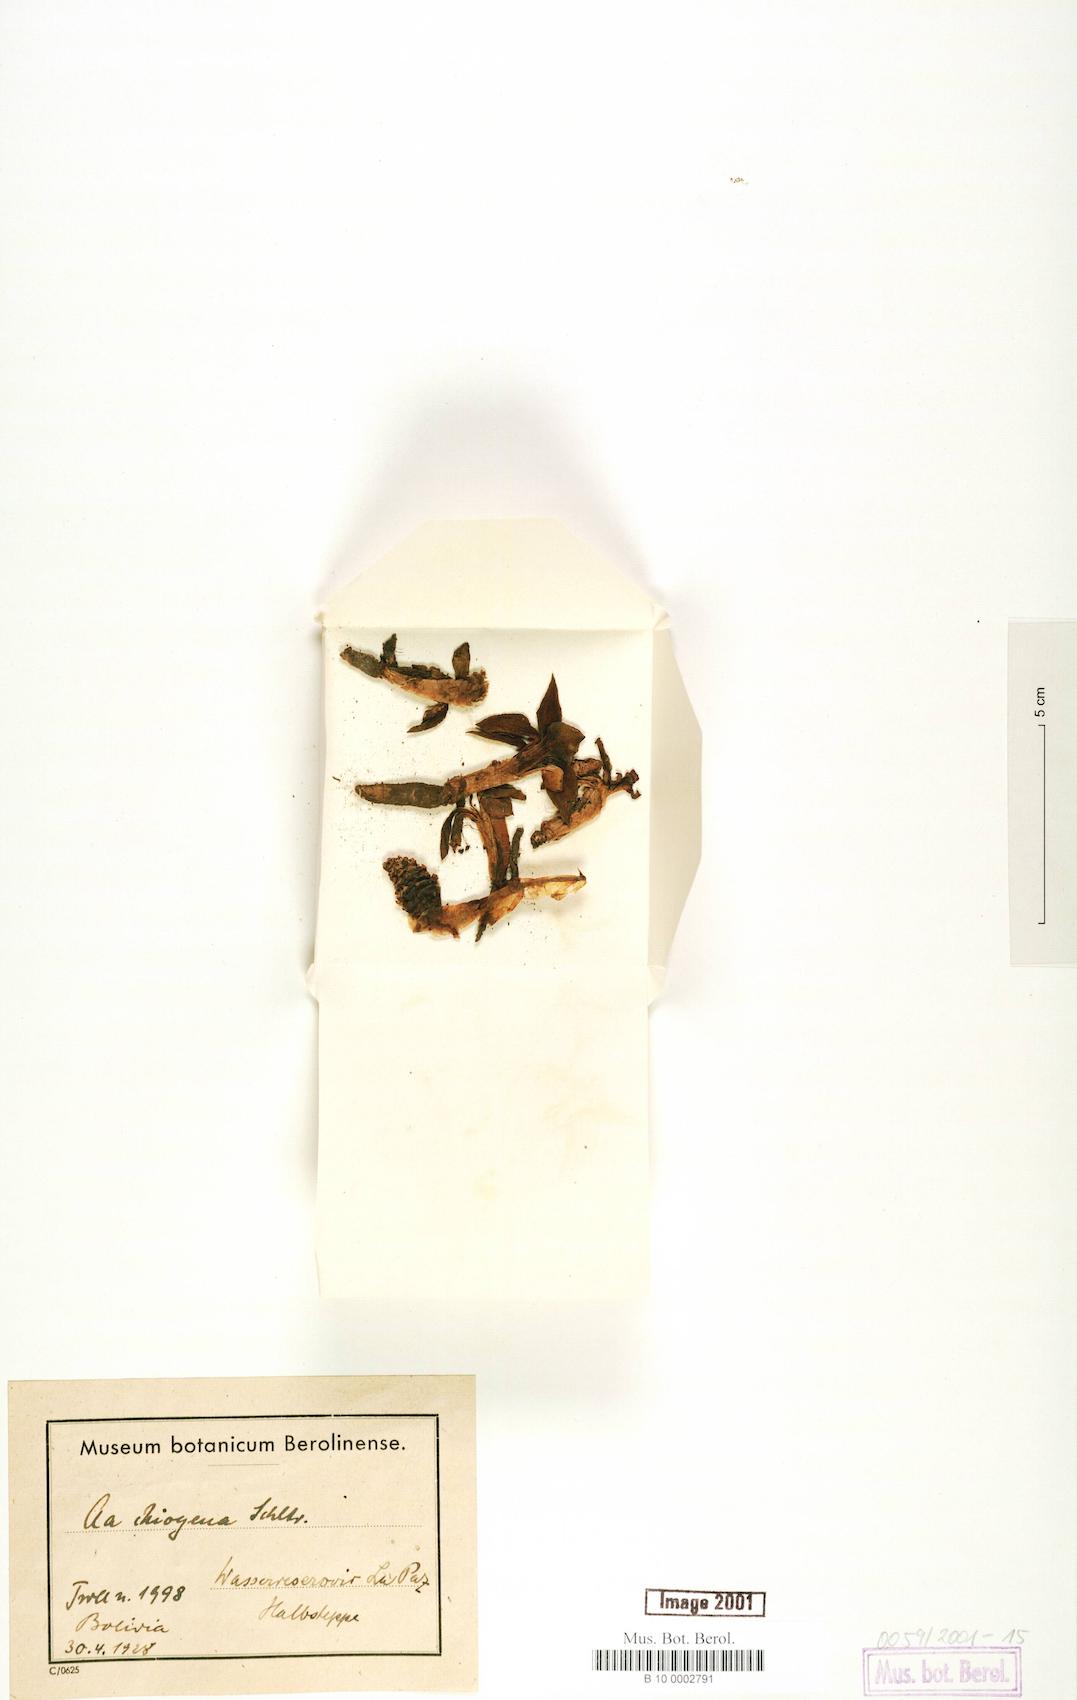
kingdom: Plantae
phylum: Tracheophyta
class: Liliopsida
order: Asparagales
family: Orchidaceae
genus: Myrosmodes
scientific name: Myrosmodes chiogena
